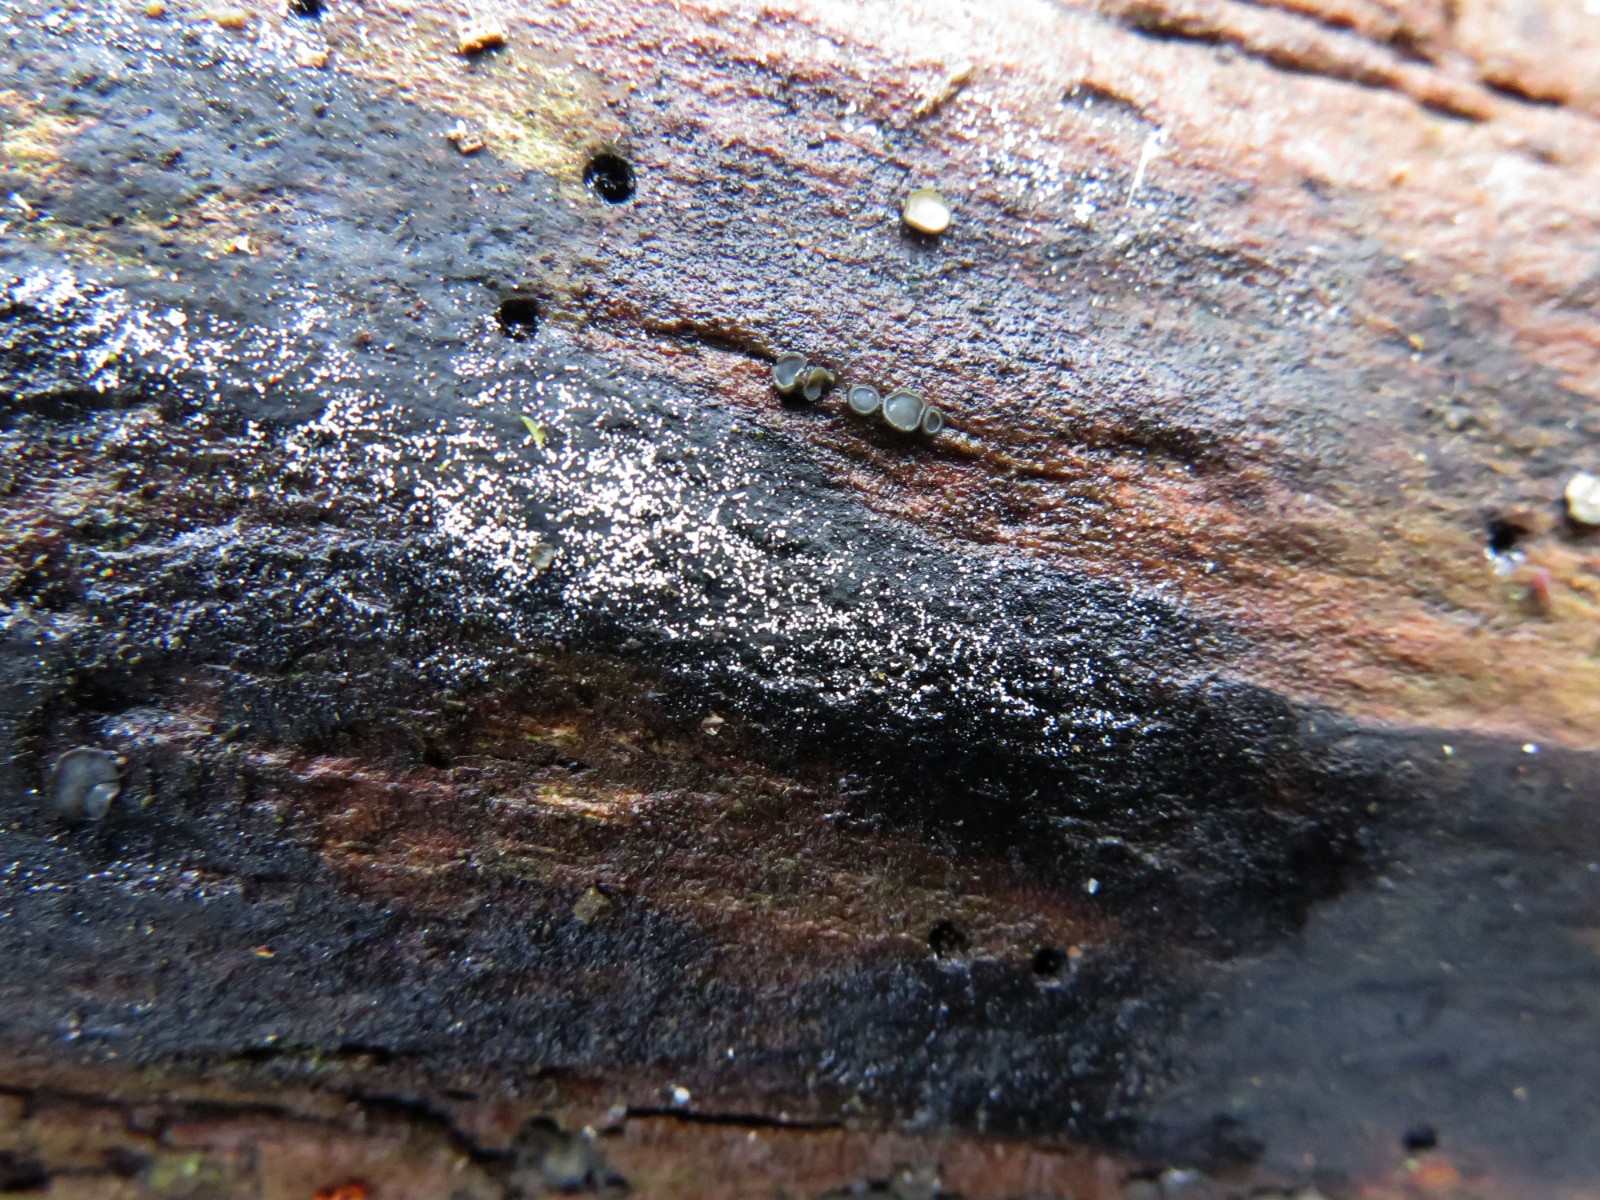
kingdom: Fungi
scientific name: Fungi
